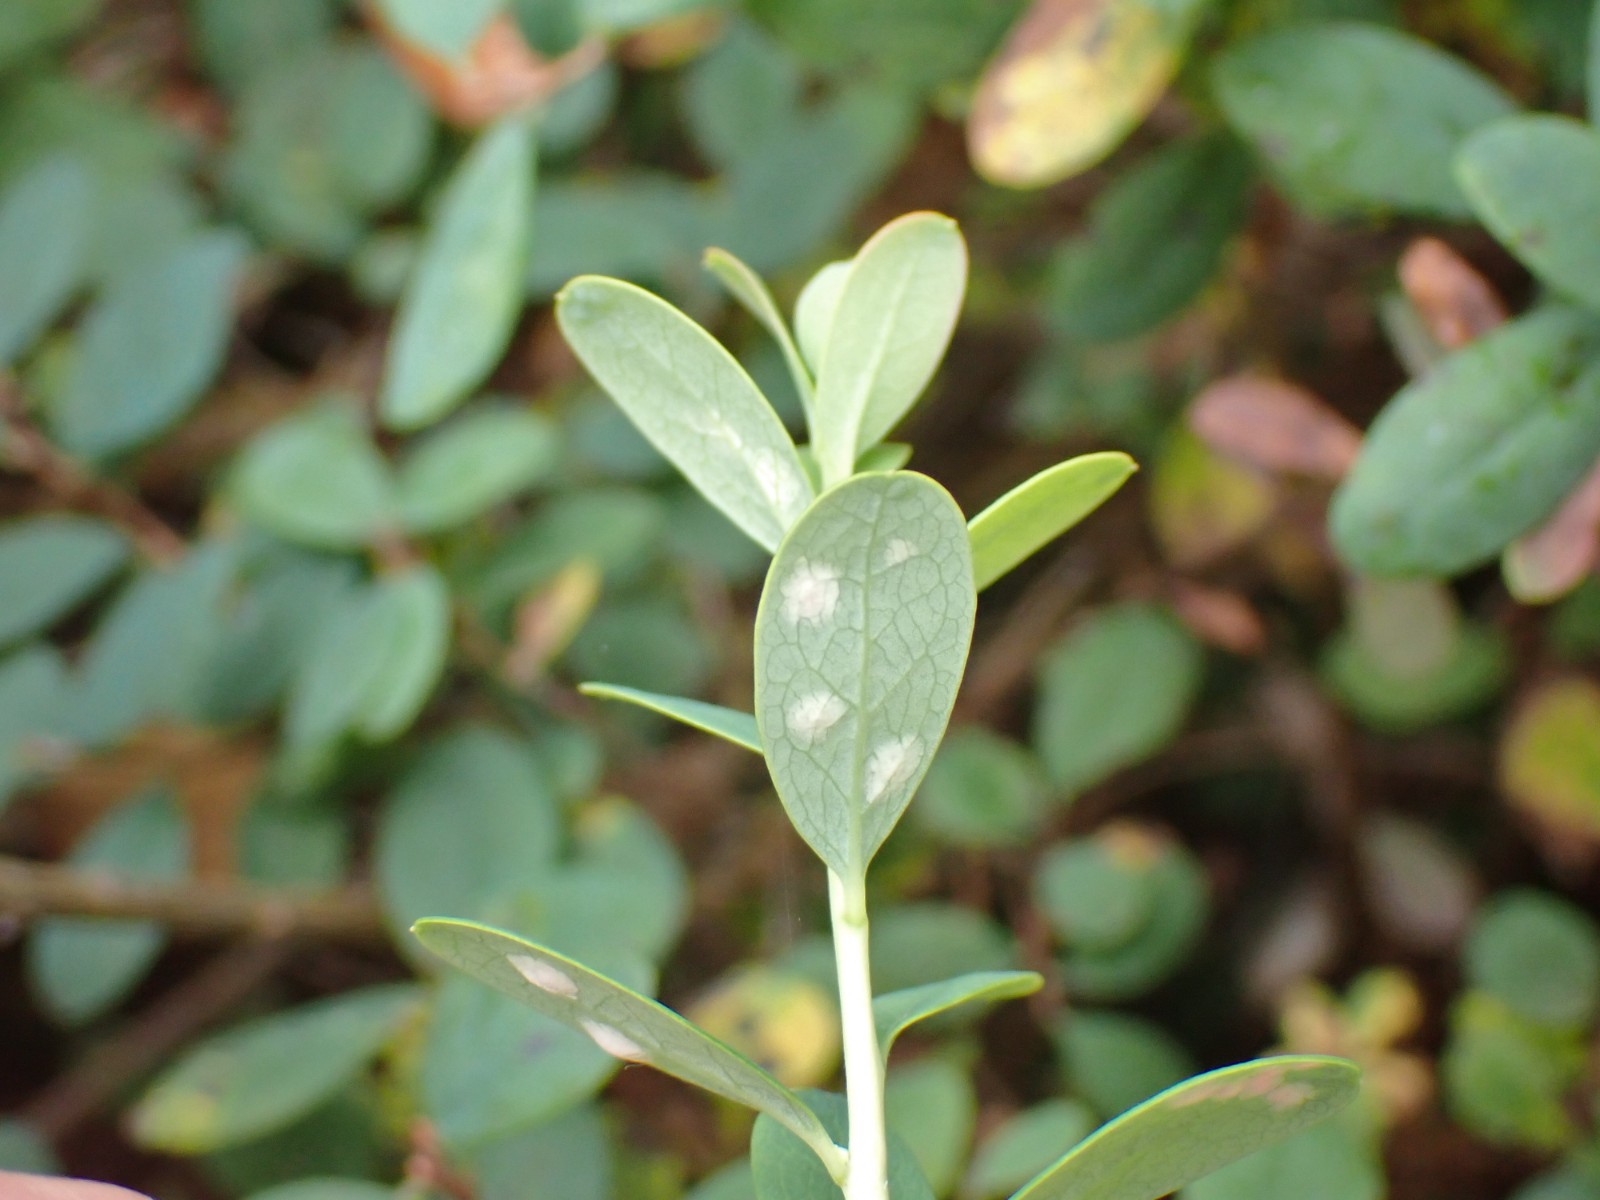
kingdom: Fungi
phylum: Basidiomycota
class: Exobasidiomycetes
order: Exobasidiales
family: Exobasidiaceae
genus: Exobasidium
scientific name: Exobasidium pachysporum
